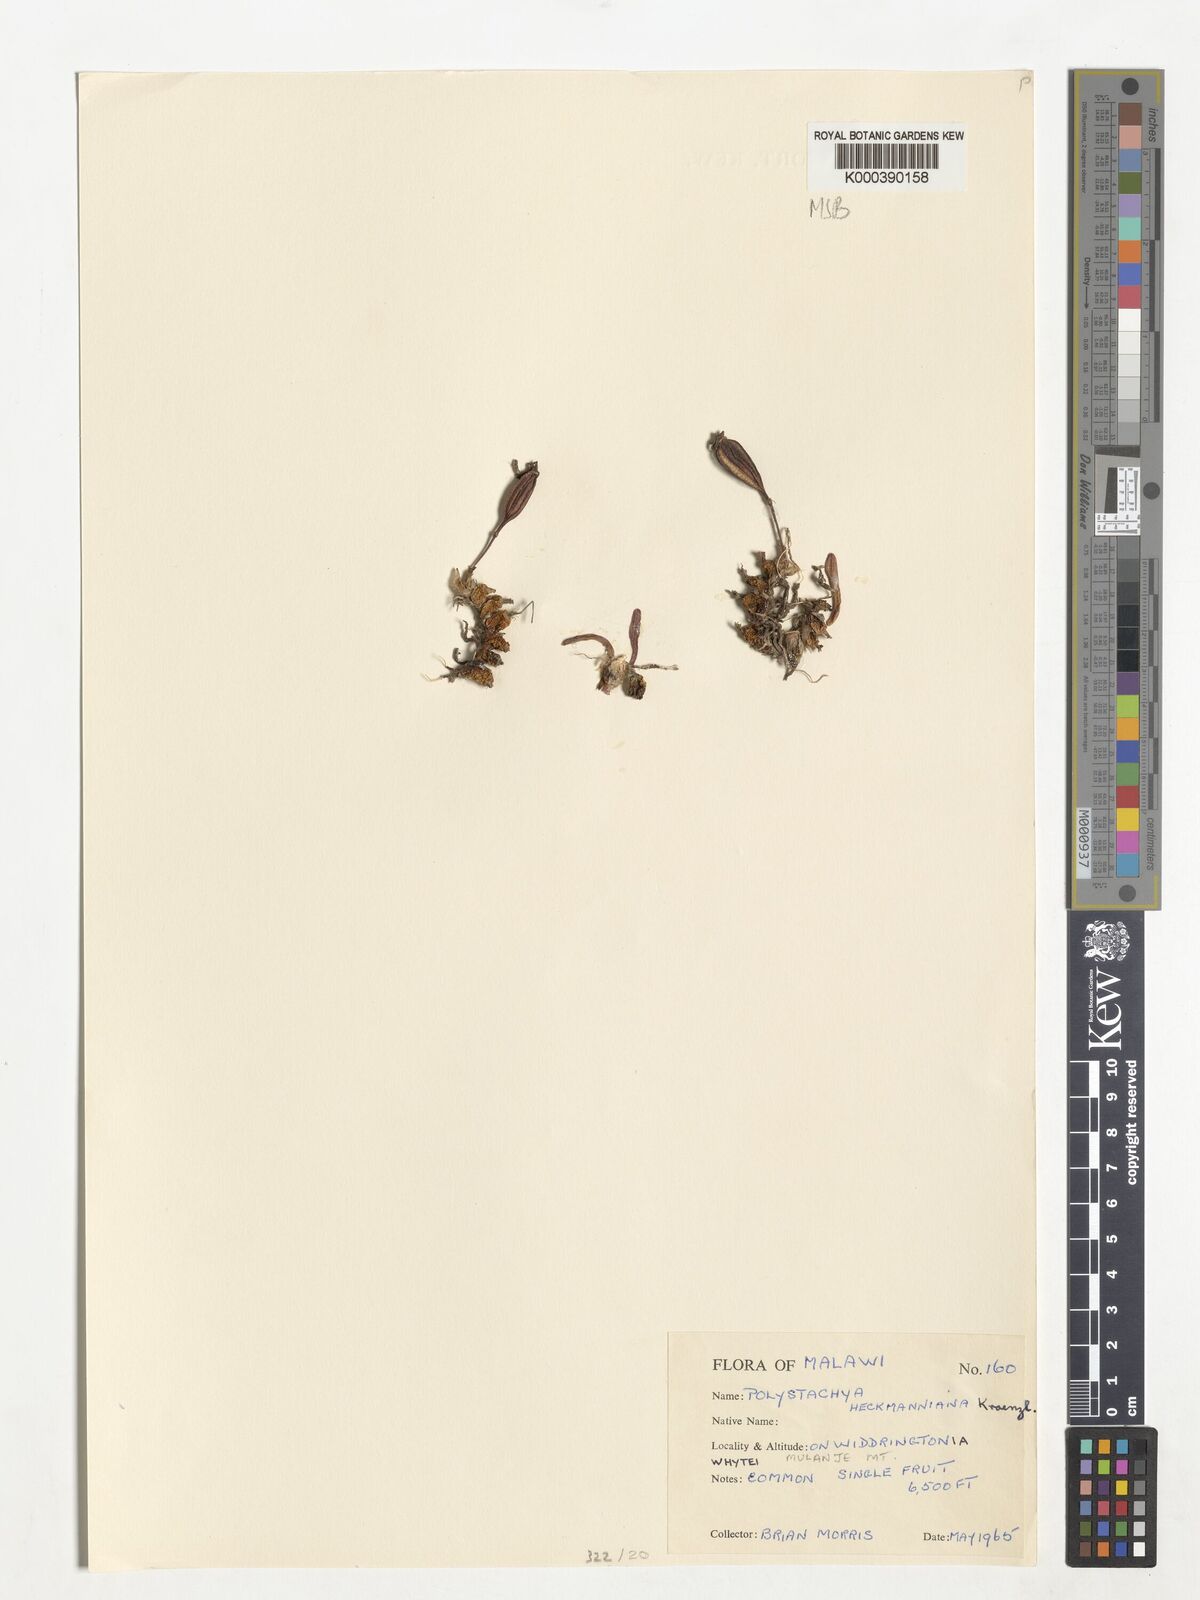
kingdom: Plantae
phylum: Tracheophyta
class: Liliopsida
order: Asparagales
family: Orchidaceae
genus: Polystachya
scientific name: Polystachya heckmanniana
